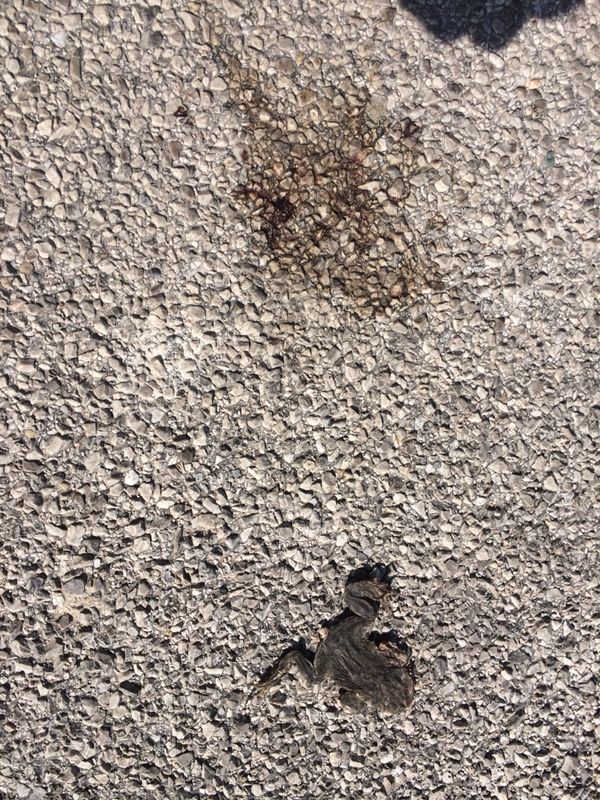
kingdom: Animalia
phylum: Chordata
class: Amphibia
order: Anura
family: Bufonidae
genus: Bufo
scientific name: Bufo bufo
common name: Common toad
